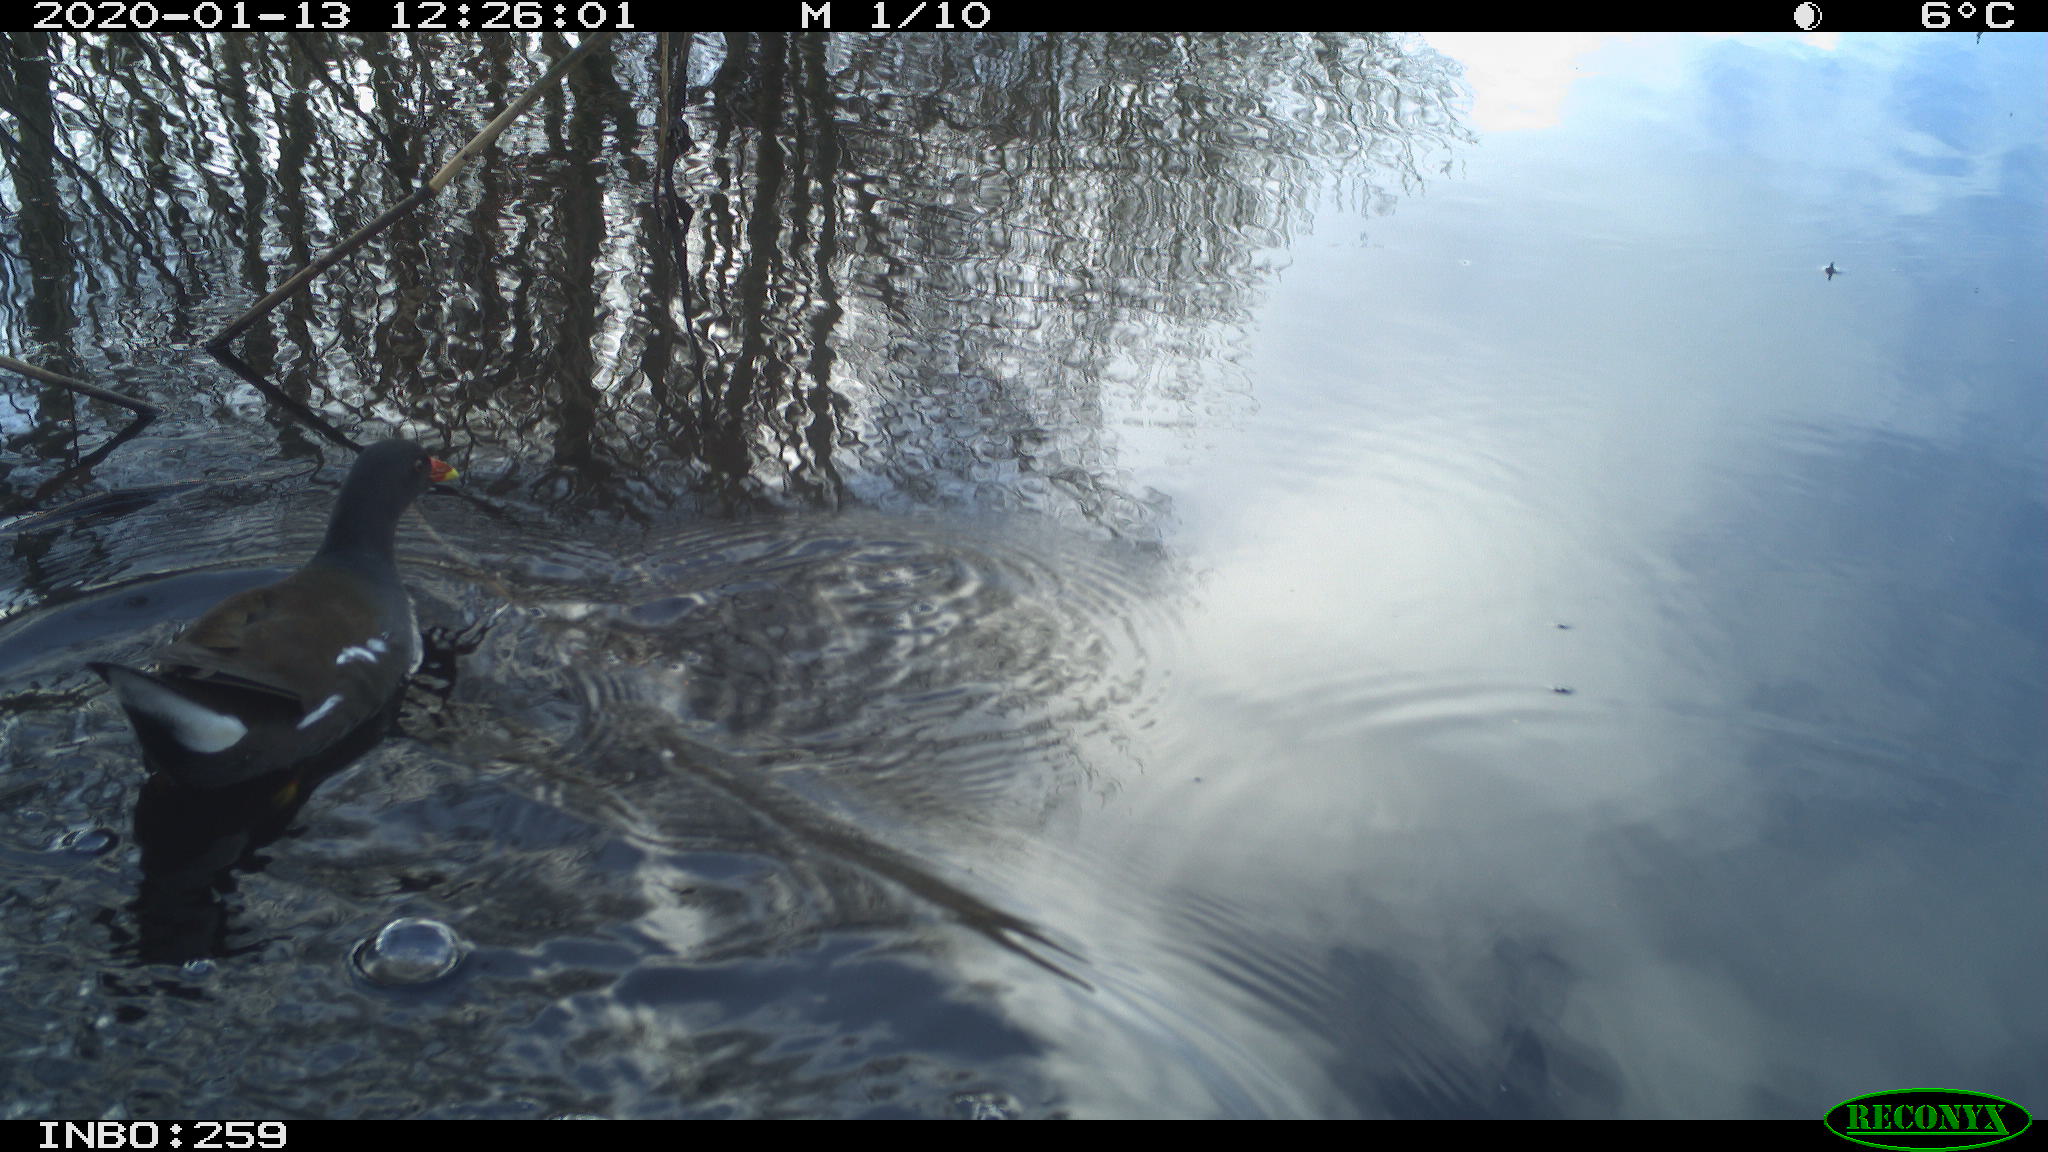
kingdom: Animalia
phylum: Chordata
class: Aves
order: Gruiformes
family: Rallidae
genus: Gallinula
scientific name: Gallinula chloropus
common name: Common moorhen
